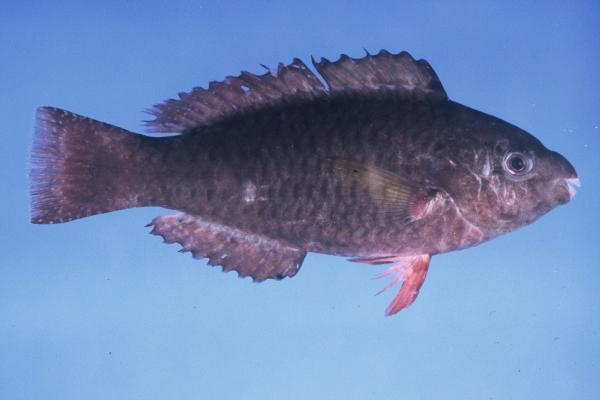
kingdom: Animalia
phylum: Chordata
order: Perciformes
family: Scaridae
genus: Scarus
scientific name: Scarus psittacus
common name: Palenose parrotfish
